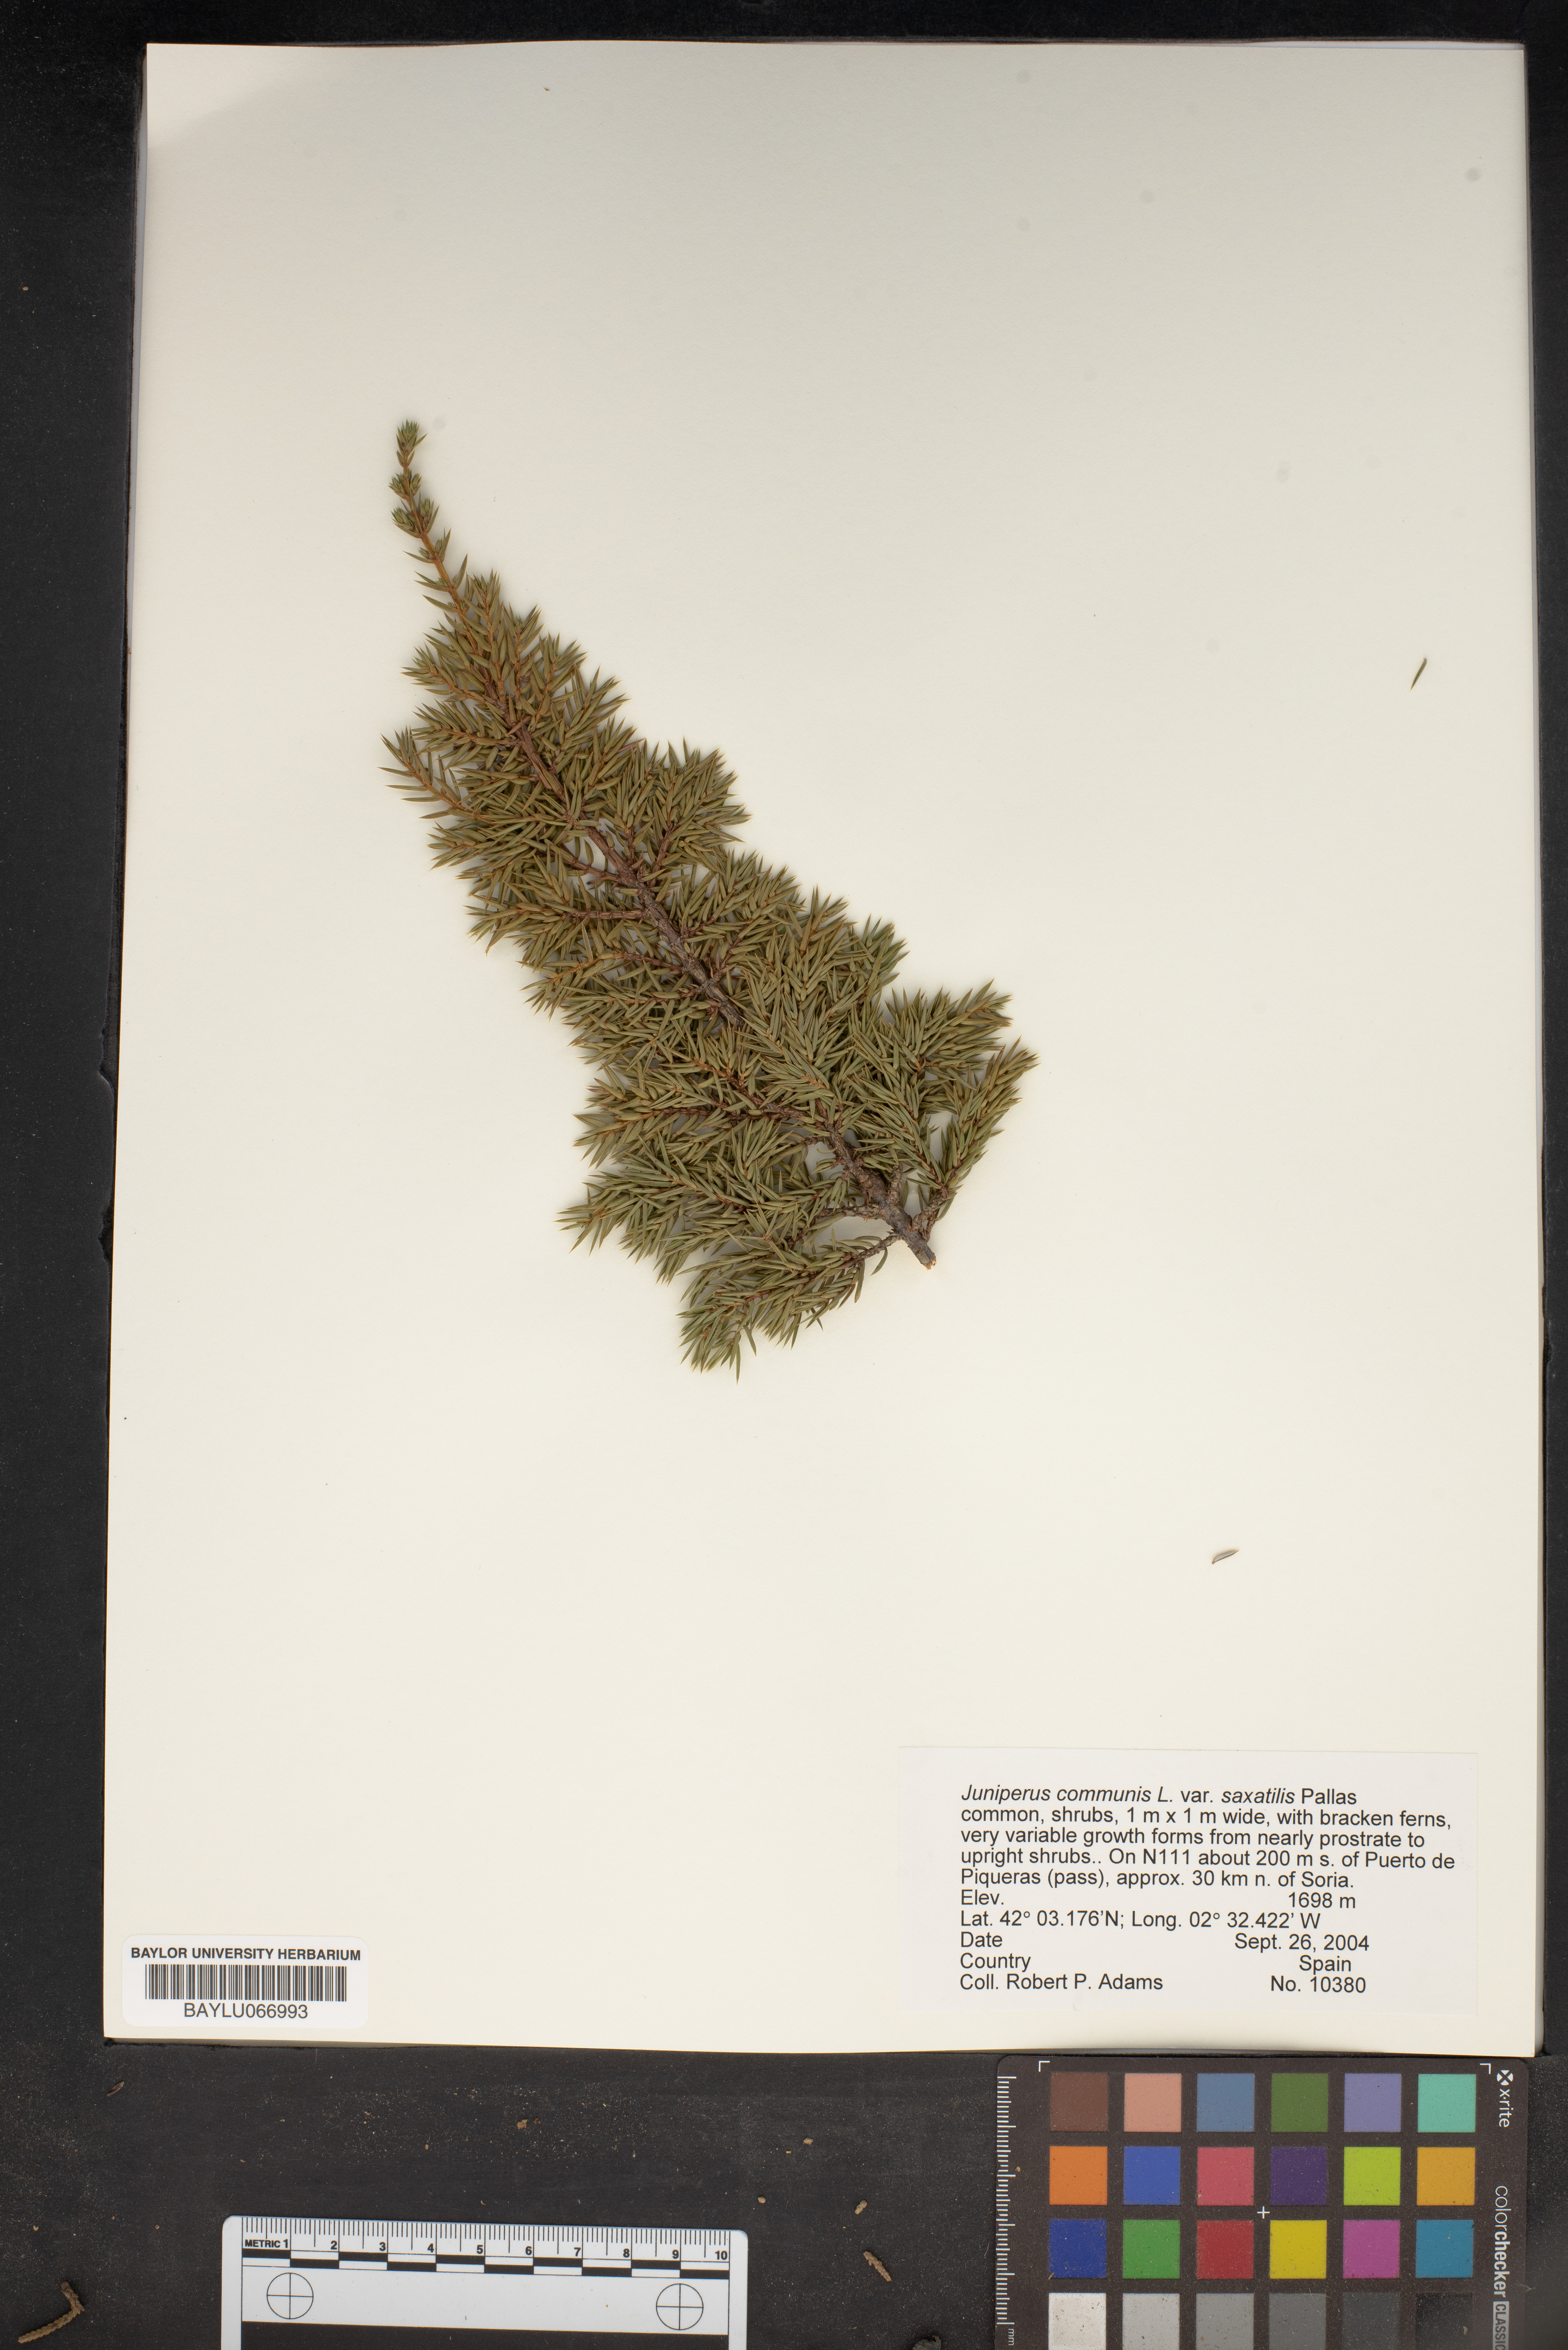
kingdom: Plantae
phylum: Tracheophyta
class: Pinopsida
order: Pinales
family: Cupressaceae
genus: Juniperus
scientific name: Juniperus communis
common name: Common juniper
